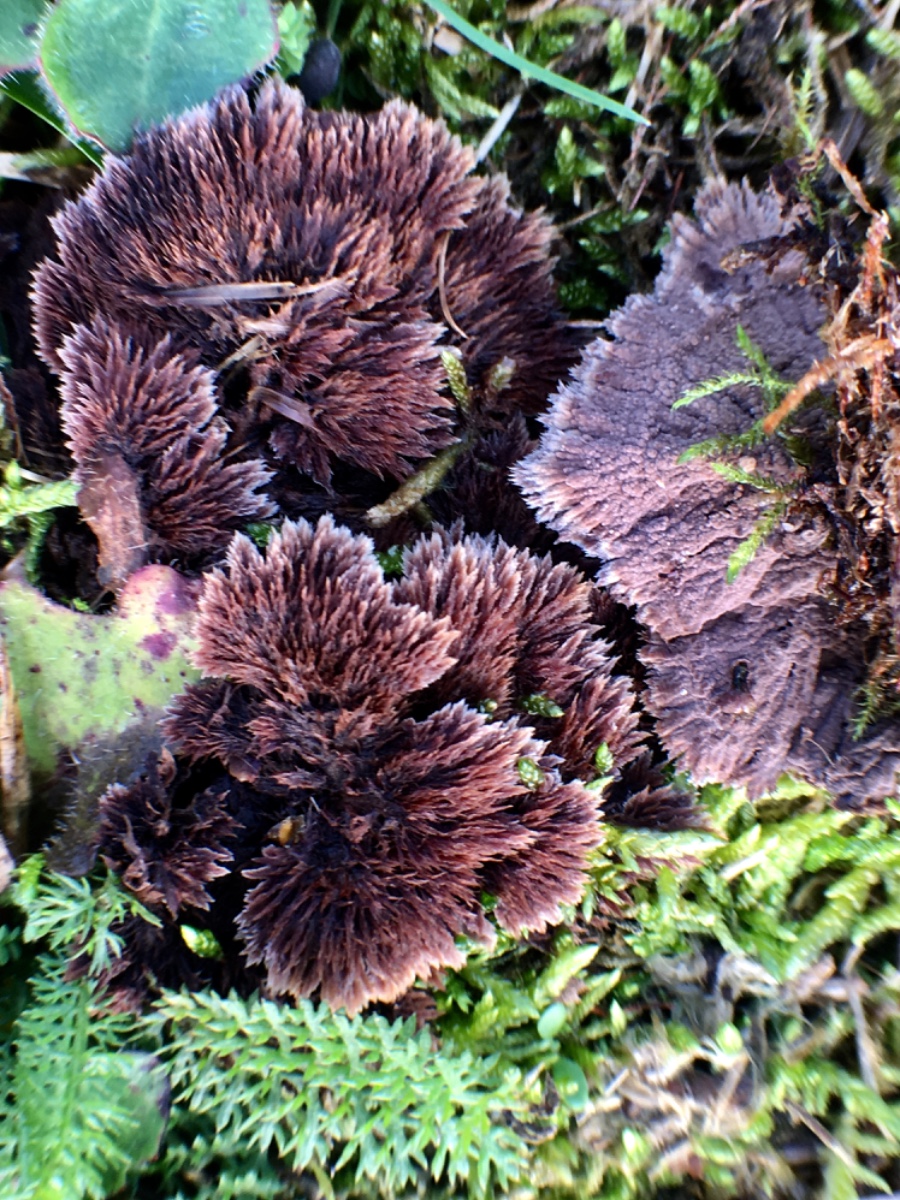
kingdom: Fungi
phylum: Basidiomycota
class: Agaricomycetes
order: Thelephorales
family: Thelephoraceae
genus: Thelephora
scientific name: Thelephora terrestris
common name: fliget frynsesvamp
